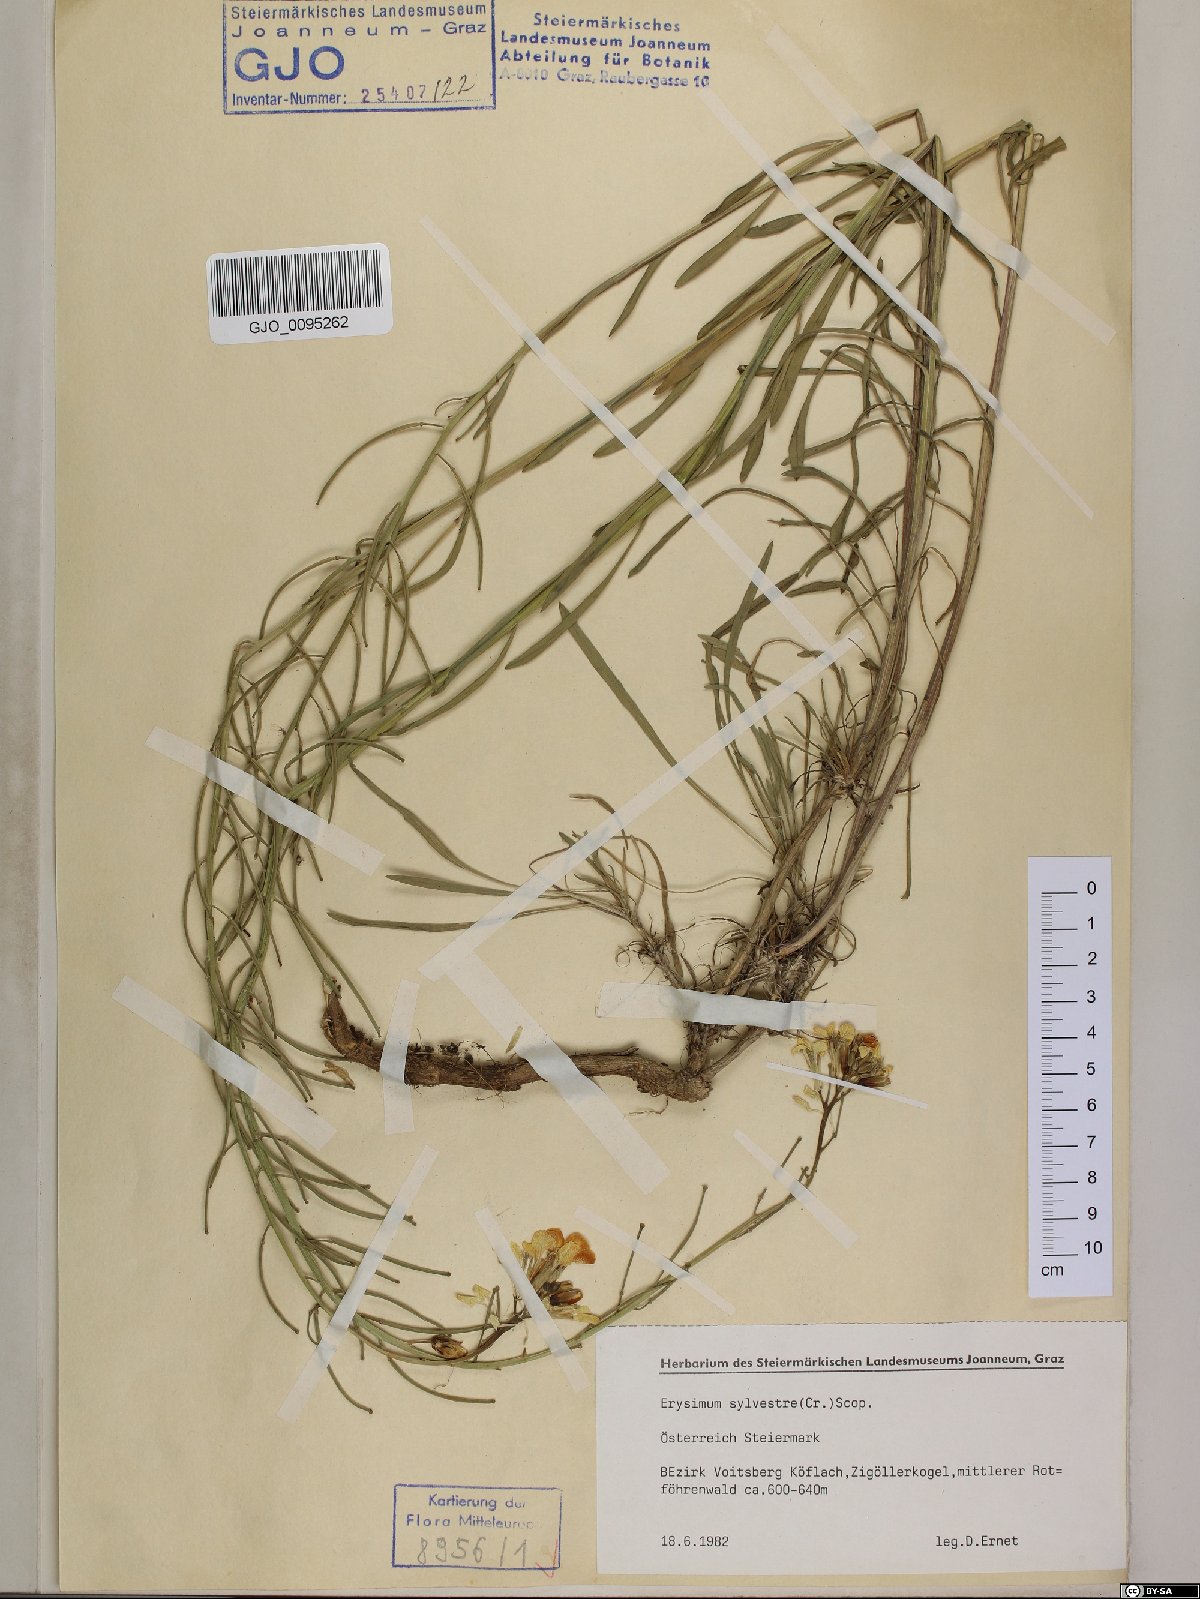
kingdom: Plantae
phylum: Tracheophyta
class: Magnoliopsida
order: Brassicales
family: Brassicaceae
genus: Erysimum
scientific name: Erysimum sylvestre
